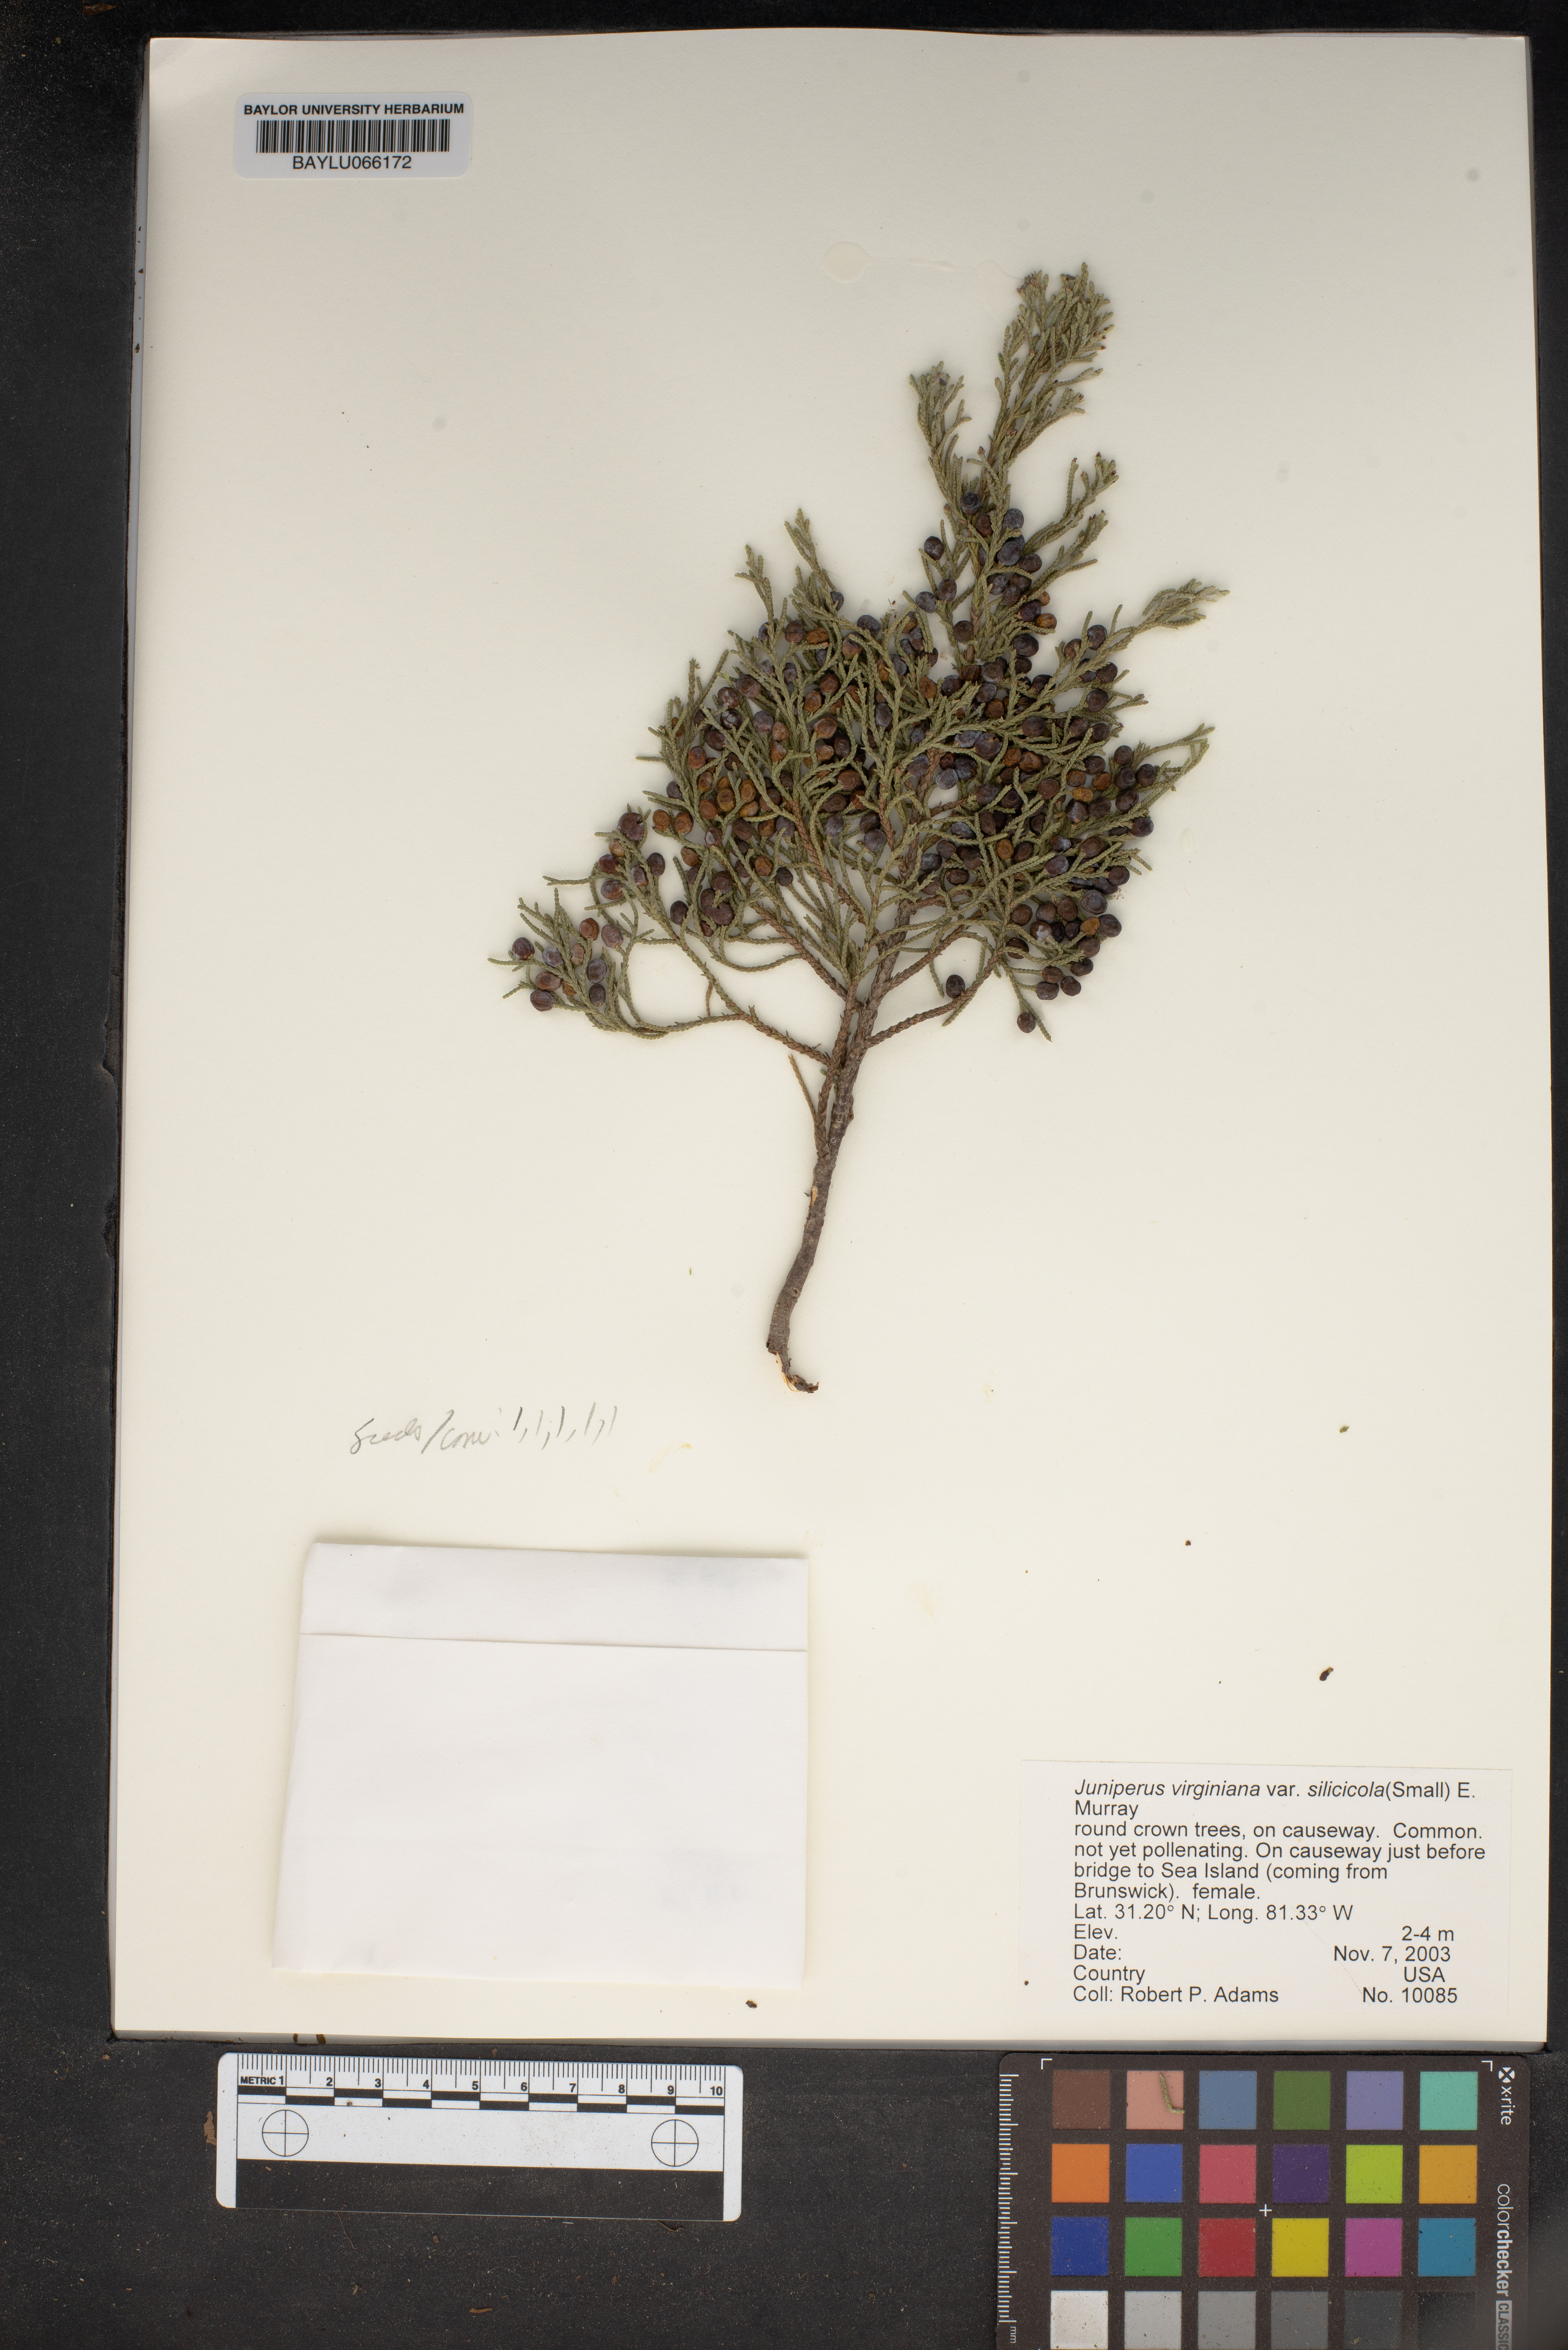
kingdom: Plantae
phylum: Tracheophyta
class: Pinopsida
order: Pinales
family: Cupressaceae
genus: Juniperus
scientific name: Juniperus virginiana
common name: Red juniper
